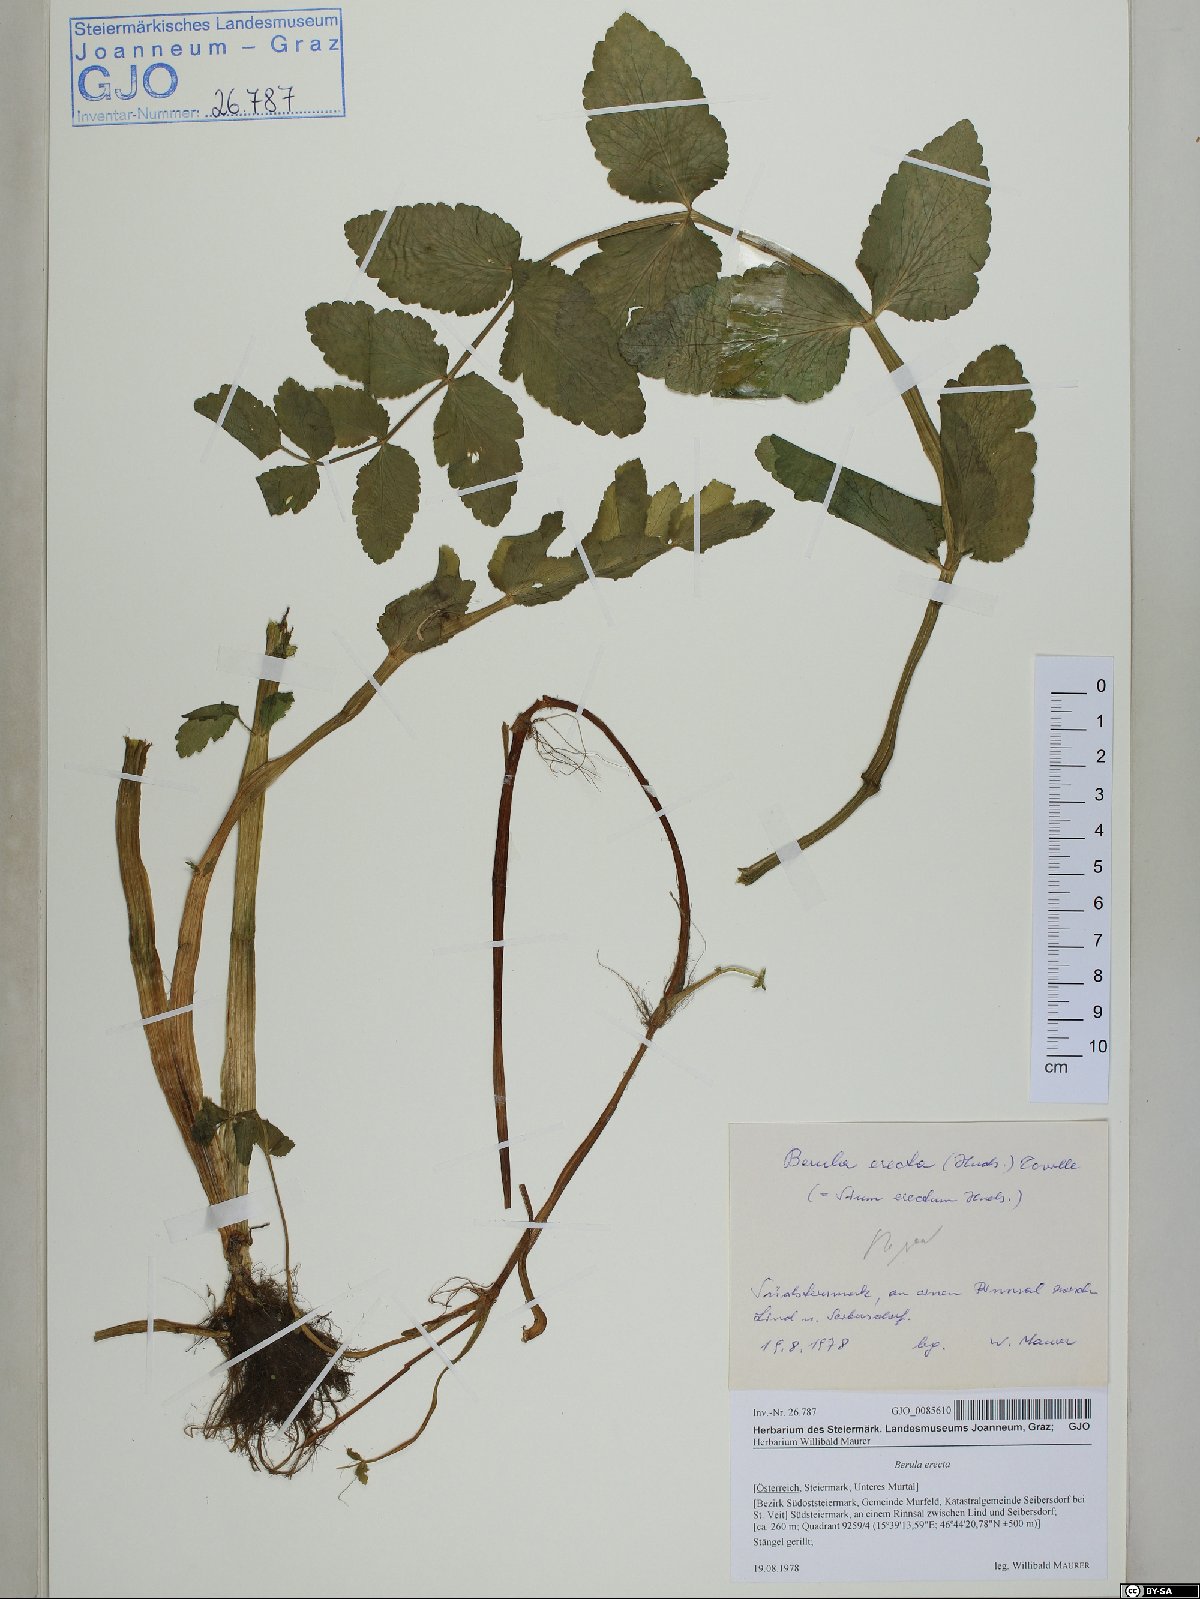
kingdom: Plantae
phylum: Tracheophyta
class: Magnoliopsida
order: Apiales
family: Apiaceae
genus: Berula
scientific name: Berula erecta
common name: Lesser water-parsnip
